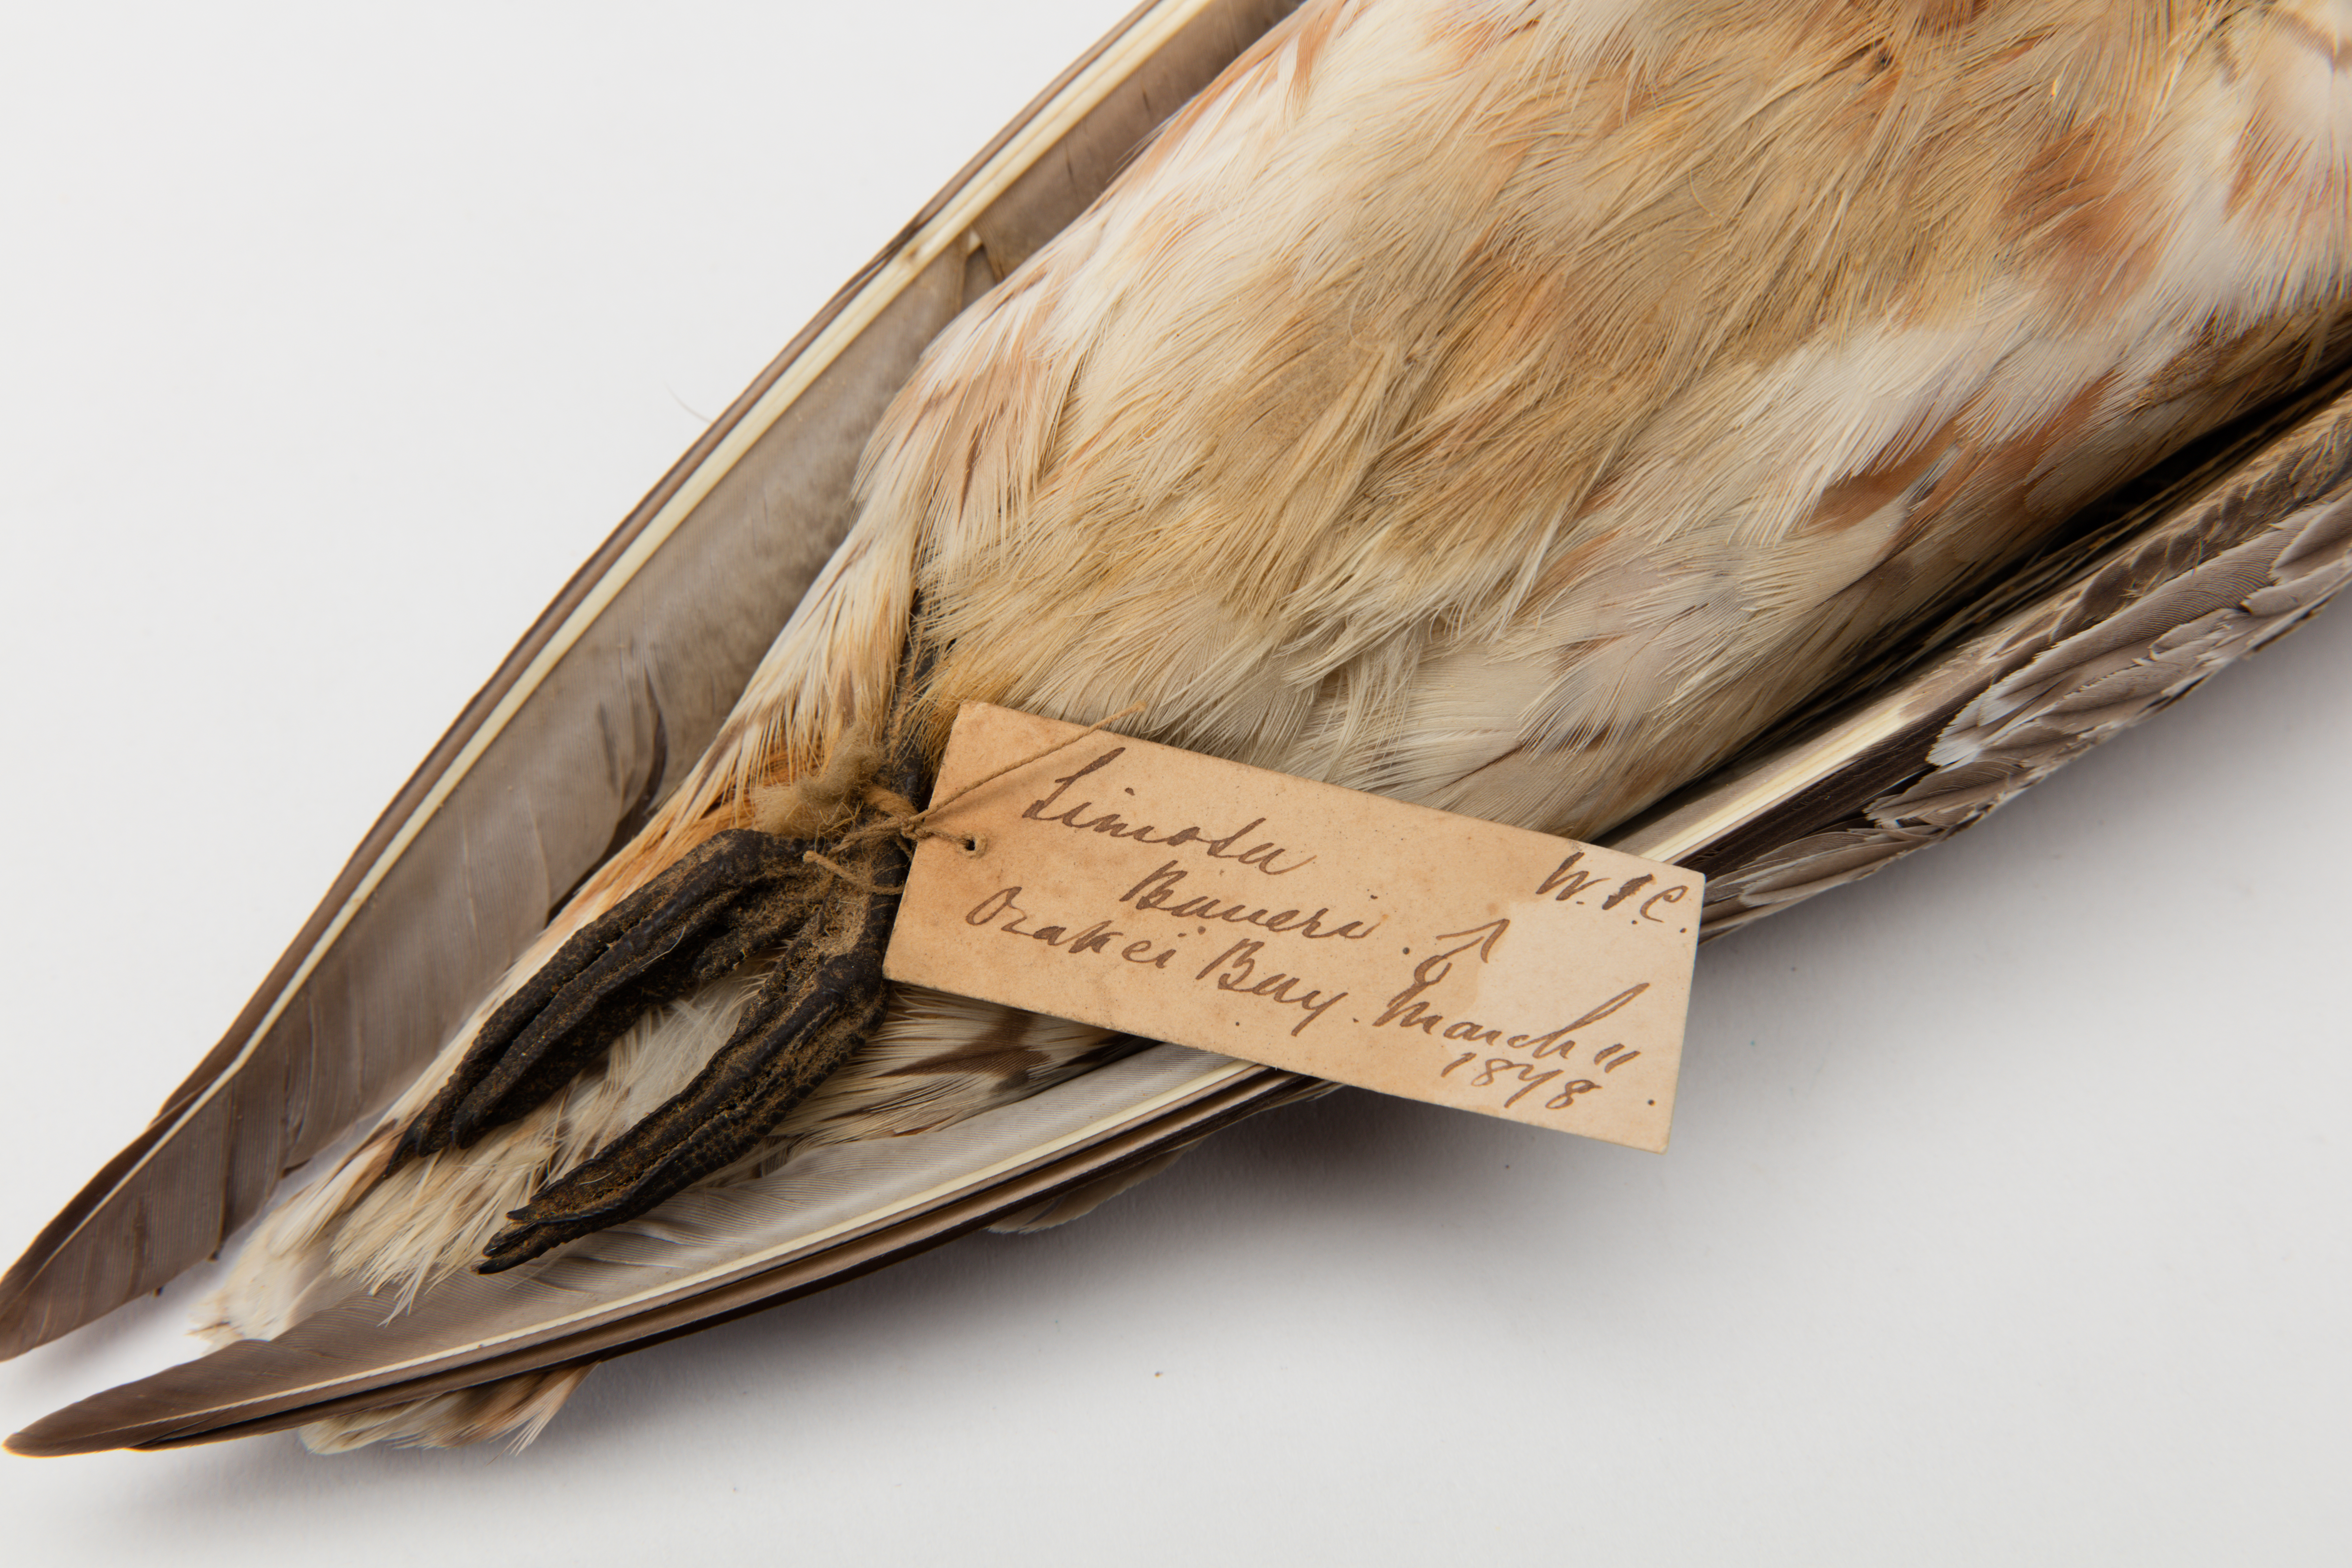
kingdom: Animalia
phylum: Chordata
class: Aves
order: Charadriiformes
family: Scolopacidae
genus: Limosa
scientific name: Limosa lapponica
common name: Bar-tailed godwit
